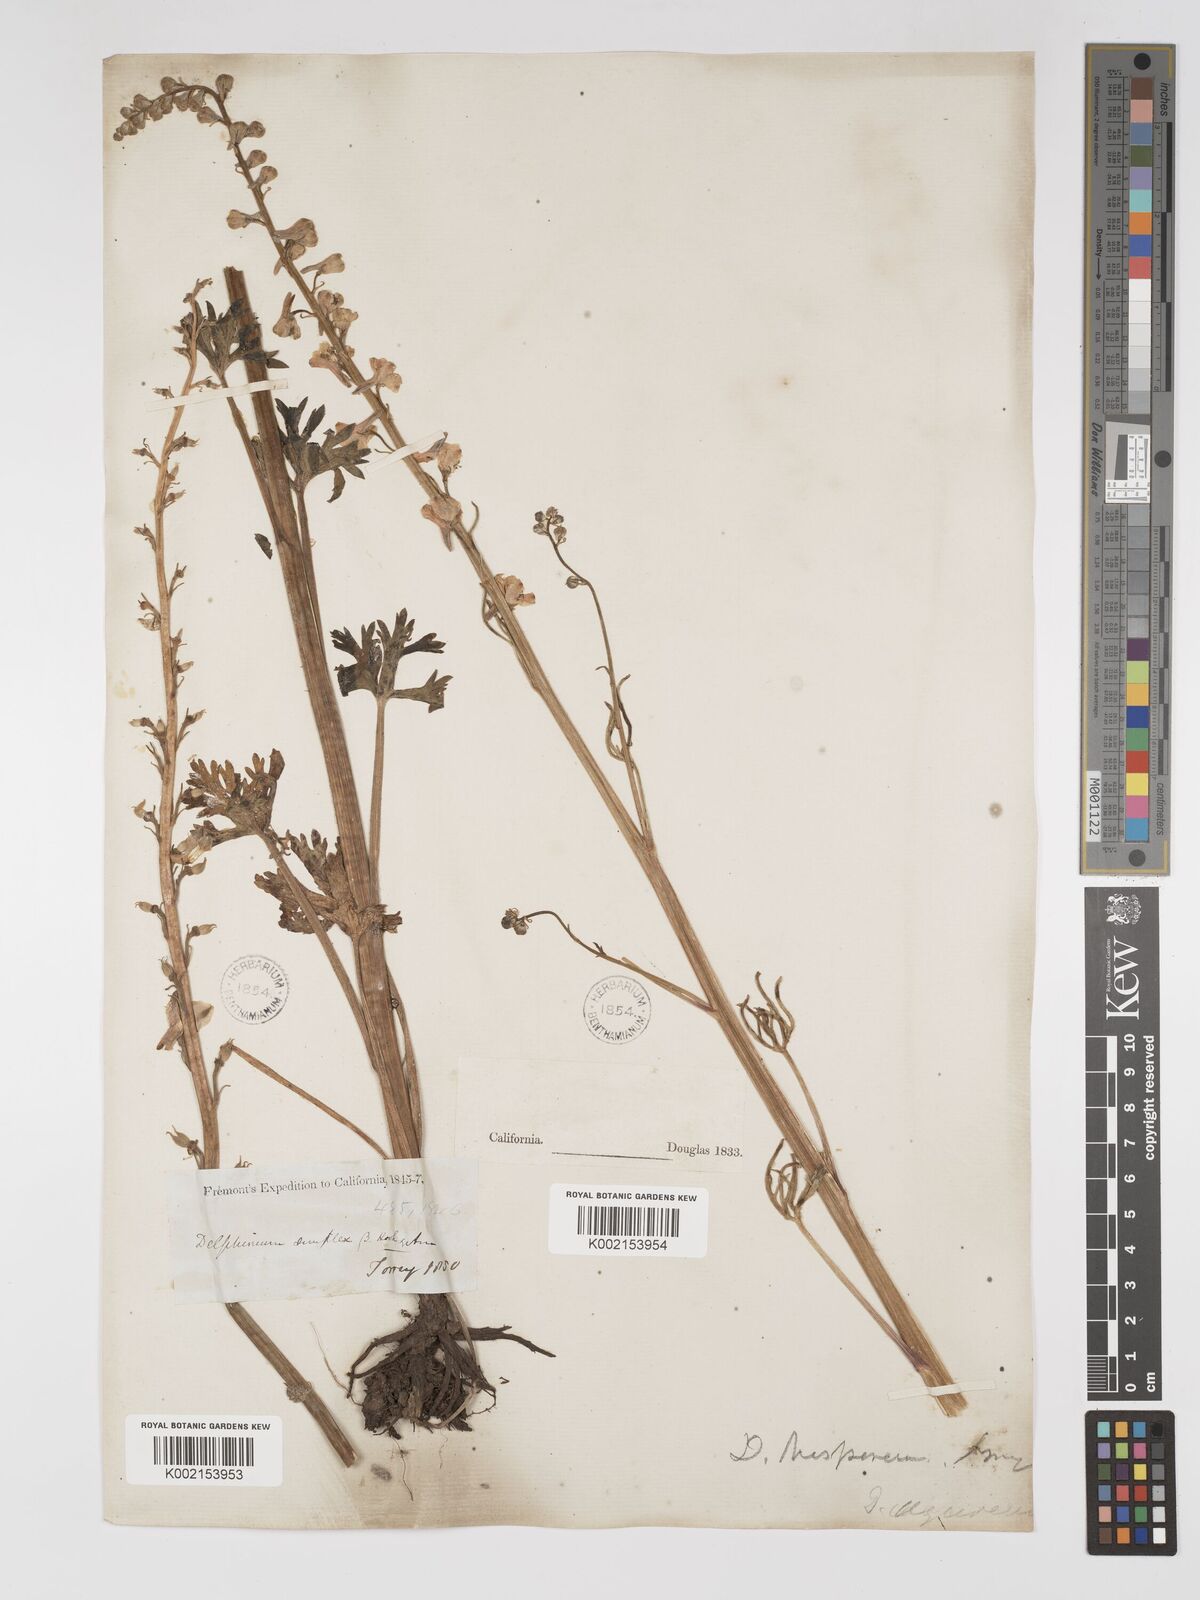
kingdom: Plantae
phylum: Tracheophyta
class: Magnoliopsida
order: Ranunculales
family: Ranunculaceae
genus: Delphinium
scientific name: Delphinium hansenii
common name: Hansen's larkspur
